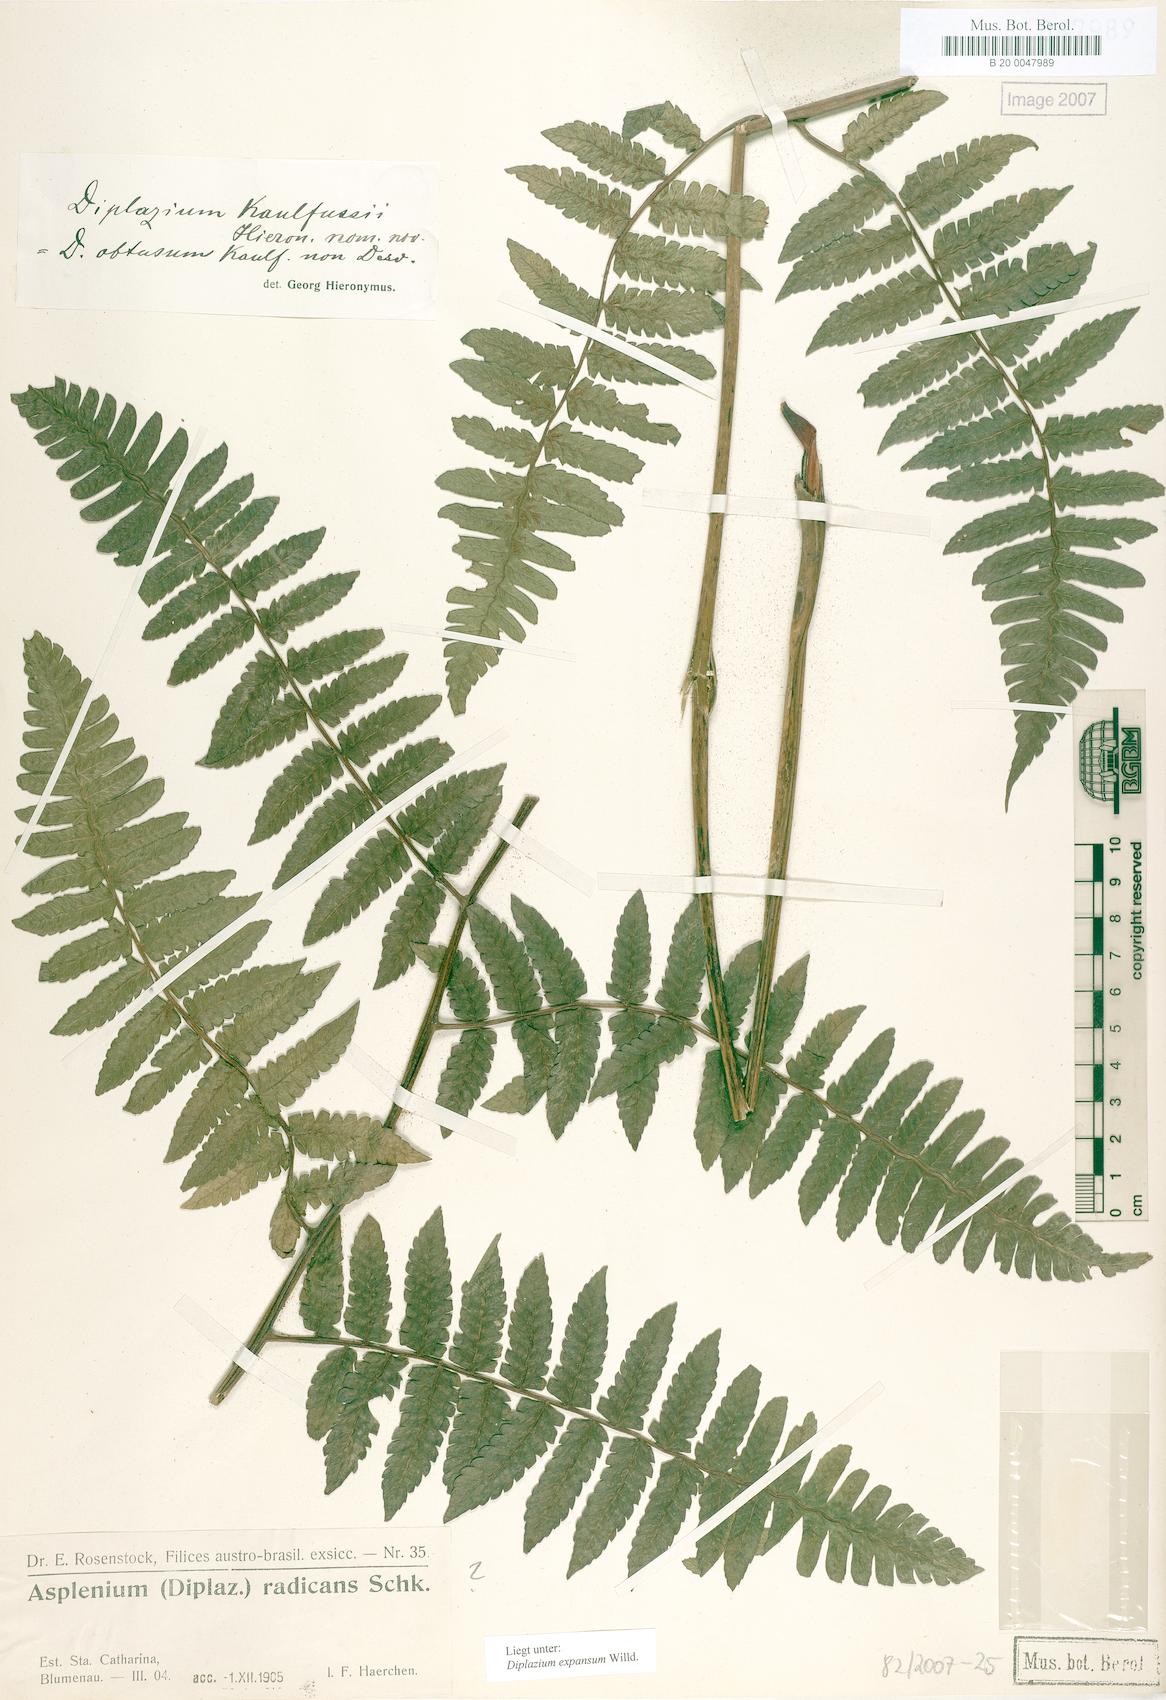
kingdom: Plantae
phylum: Tracheophyta
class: Polypodiopsida
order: Polypodiales
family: Athyriaceae
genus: Diplazium
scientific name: Diplazium expansum
